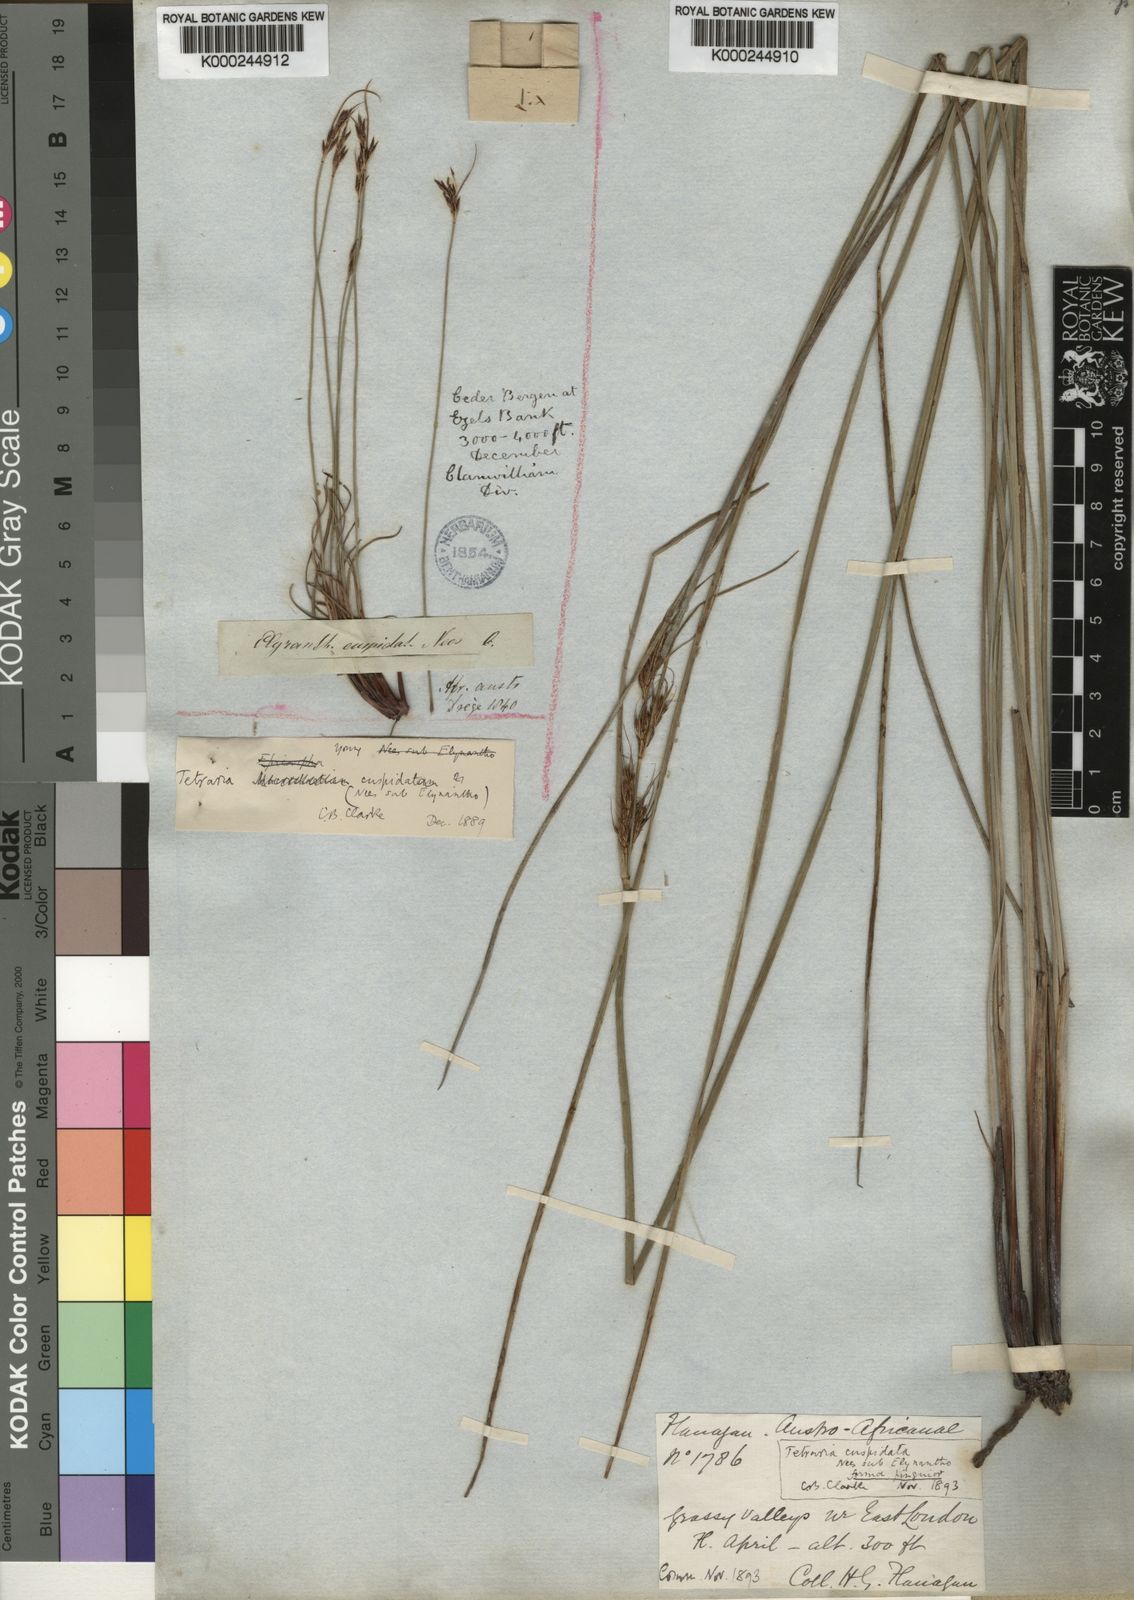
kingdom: Plantae
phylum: Tracheophyta
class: Liliopsida
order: Poales
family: Cyperaceae
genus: Schoenus
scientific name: Schoenus loreus
